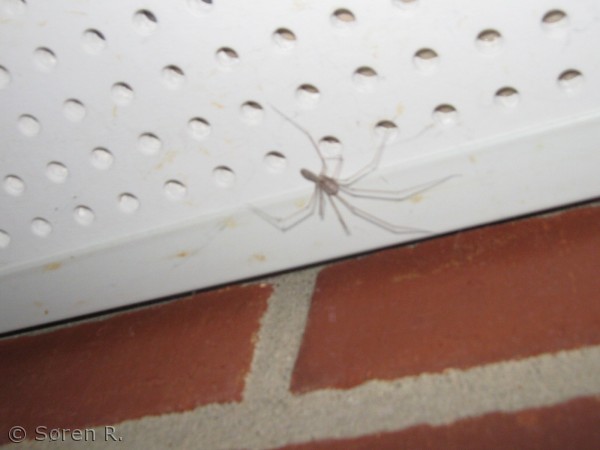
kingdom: Animalia
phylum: Arthropoda
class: Arachnida
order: Araneae
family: Pholcidae
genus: Pholcus
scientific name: Pholcus phalangioides
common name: Mejeredderkop
